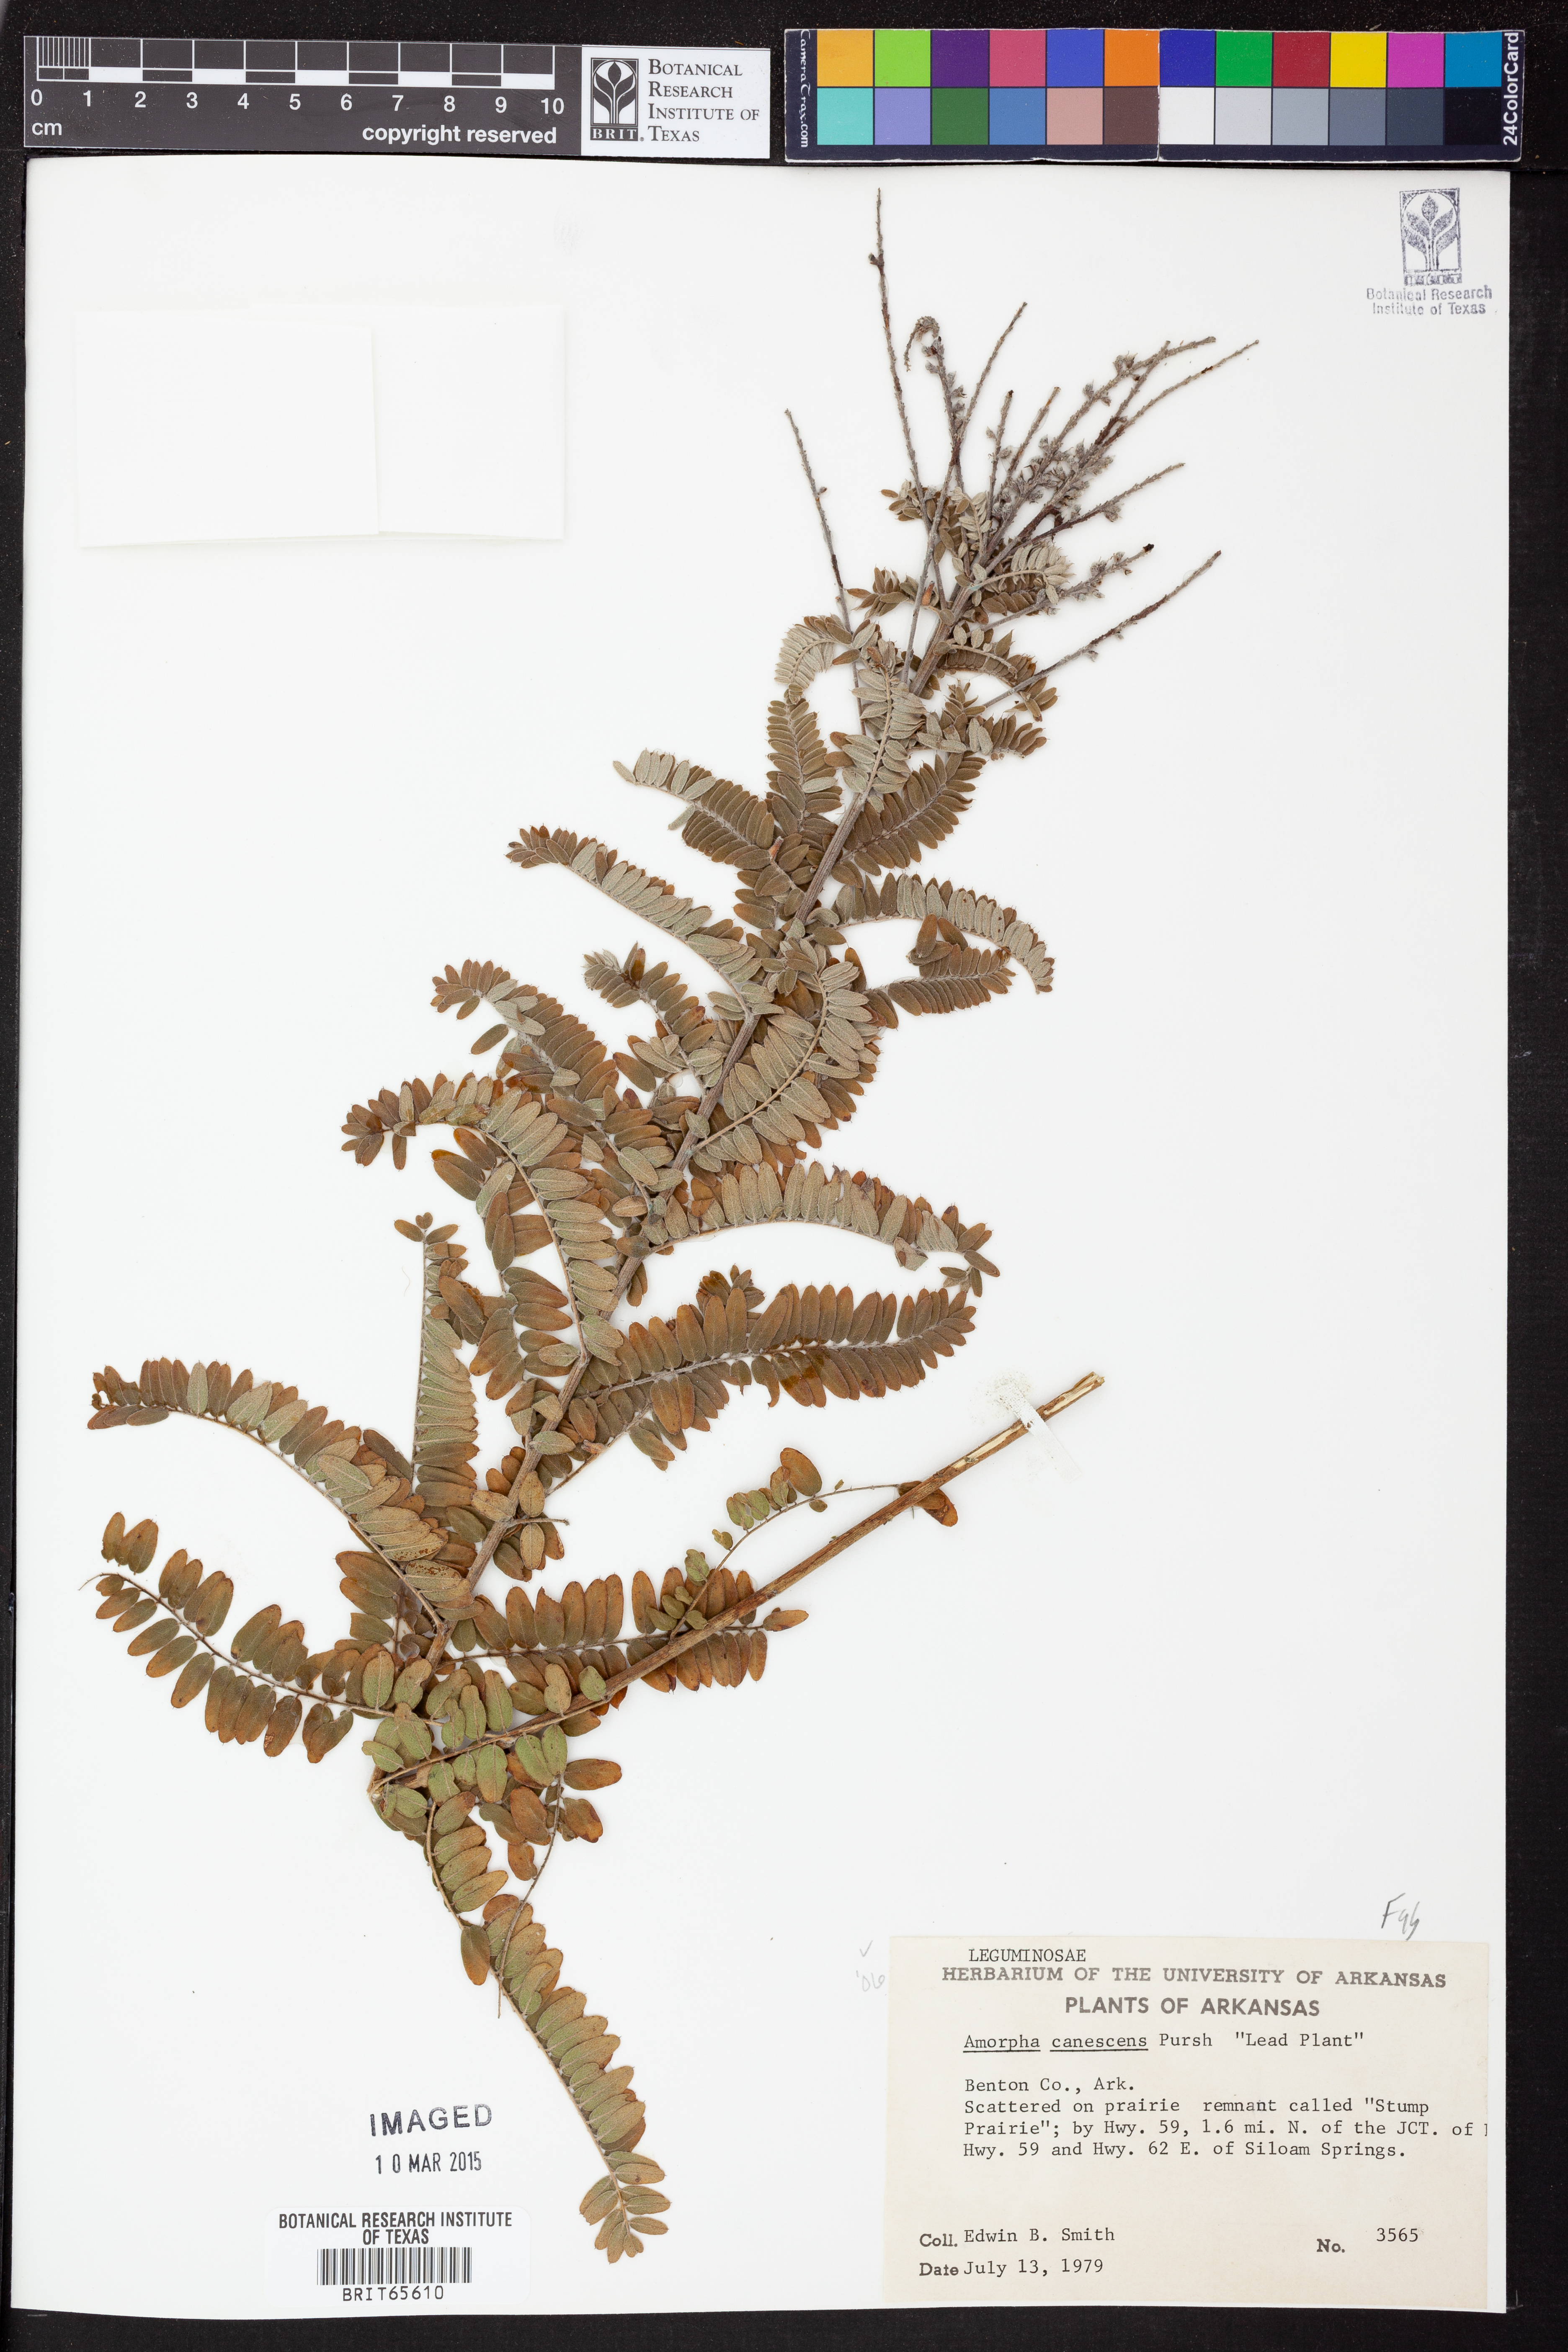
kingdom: Plantae
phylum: Tracheophyta
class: Magnoliopsida
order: Fabales
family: Fabaceae
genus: Amorpha
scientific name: Amorpha canescens
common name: Leadplant
